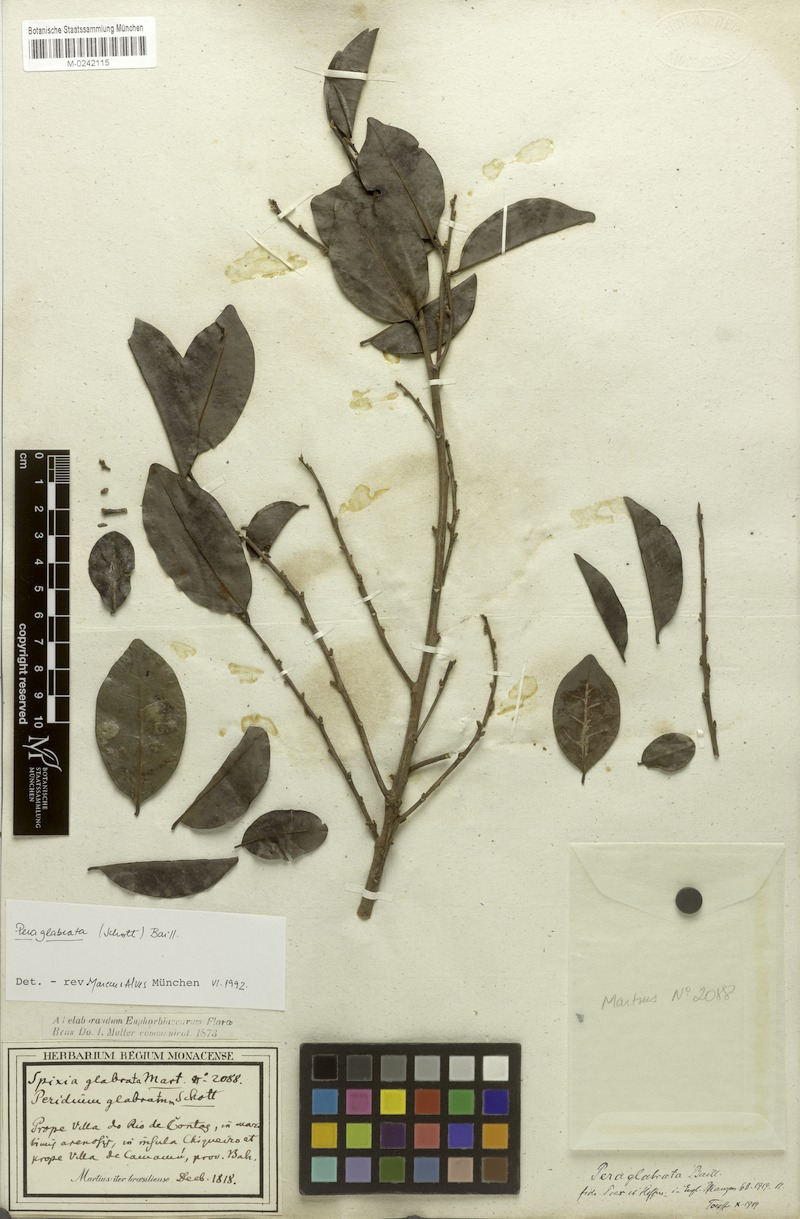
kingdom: Plantae
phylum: Tracheophyta
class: Magnoliopsida
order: Malpighiales
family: Peraceae
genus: Pera
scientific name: Pera glabrata
